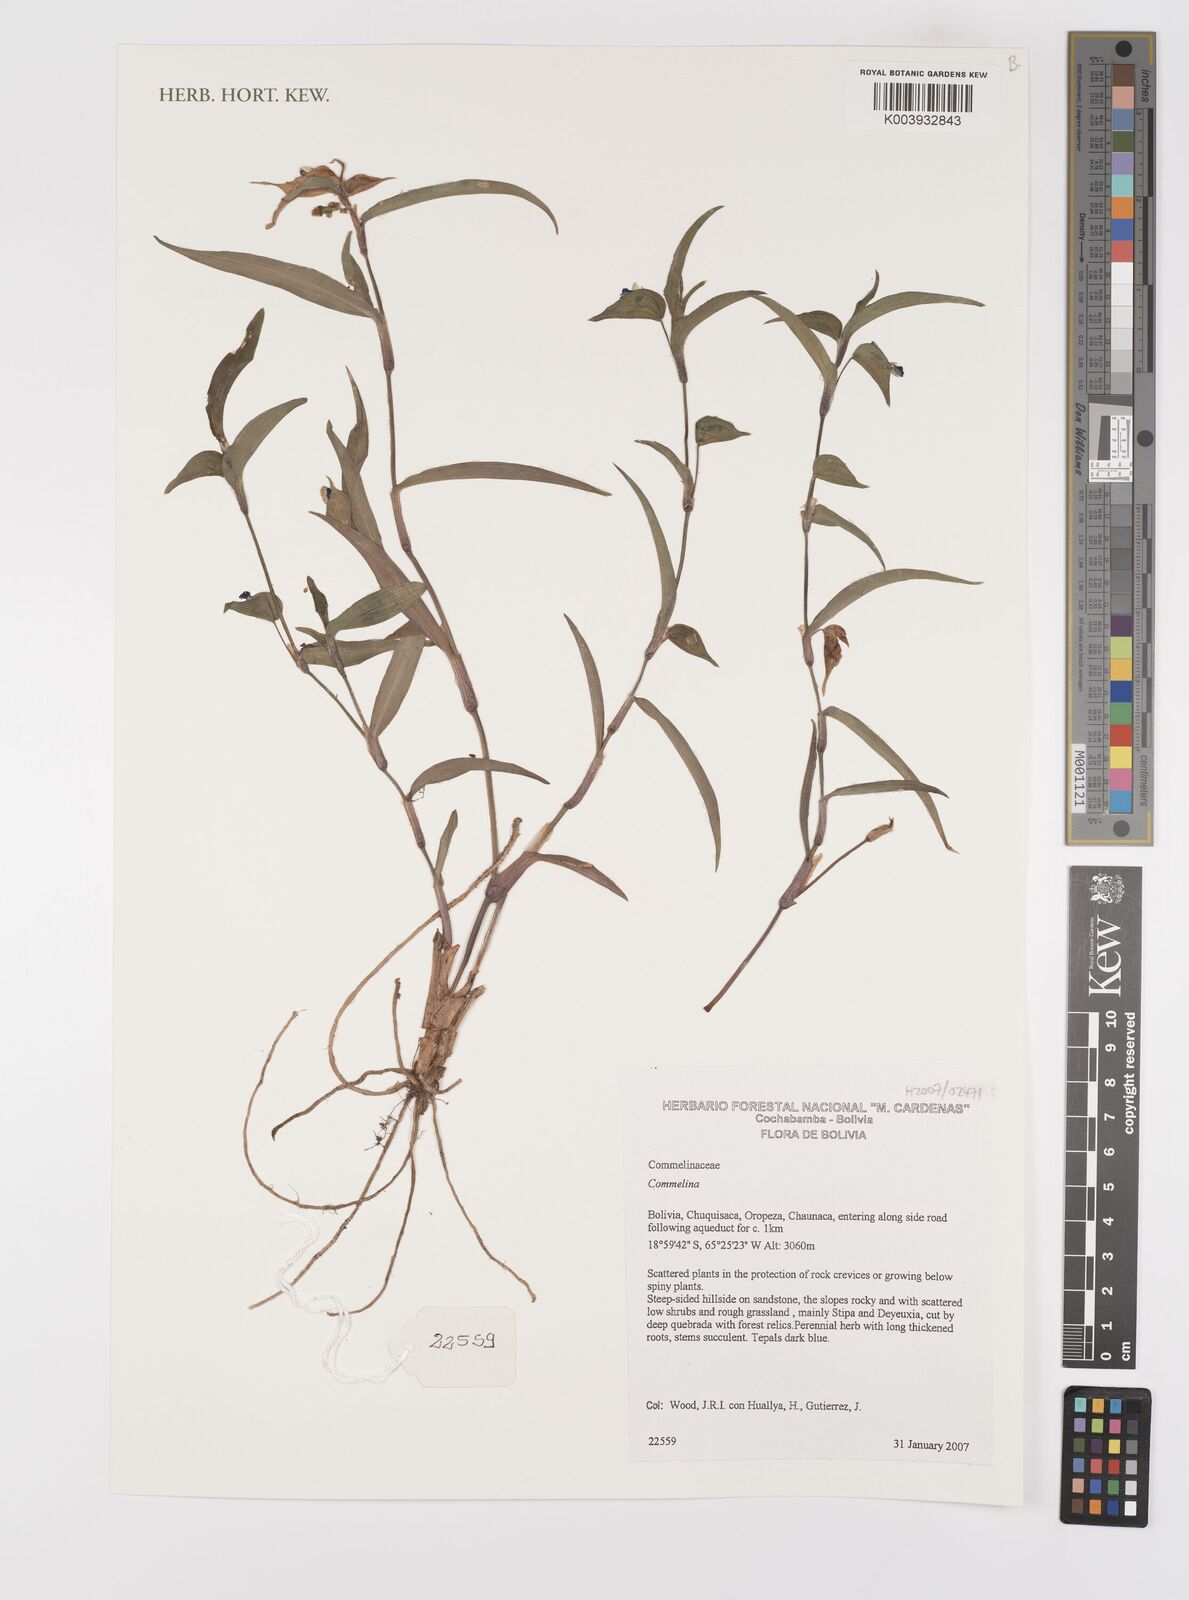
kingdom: Plantae
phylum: Tracheophyta
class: Liliopsida
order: Commelinales
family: Commelinaceae
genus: Commelina
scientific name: Commelina
